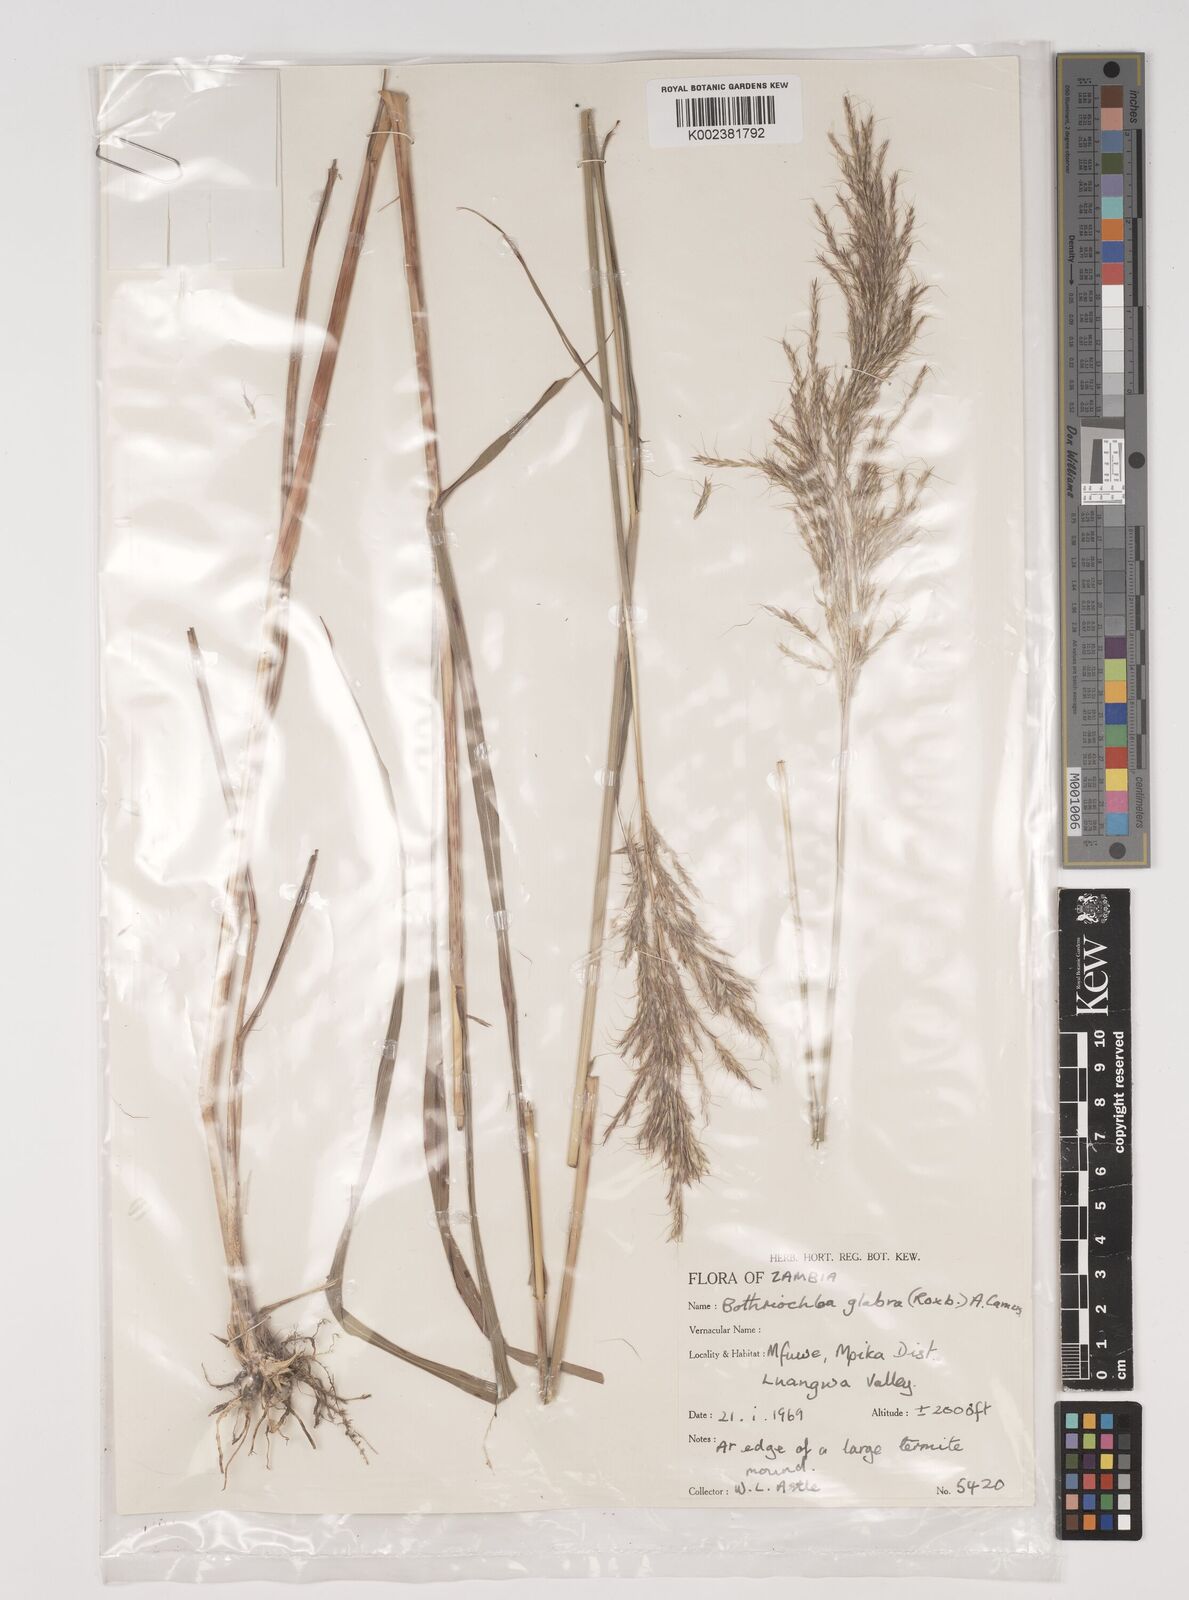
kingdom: Plantae
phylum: Tracheophyta
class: Liliopsida
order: Poales
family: Poaceae
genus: Bothriochloa
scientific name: Bothriochloa bladhii
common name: Caucasian bluestem
